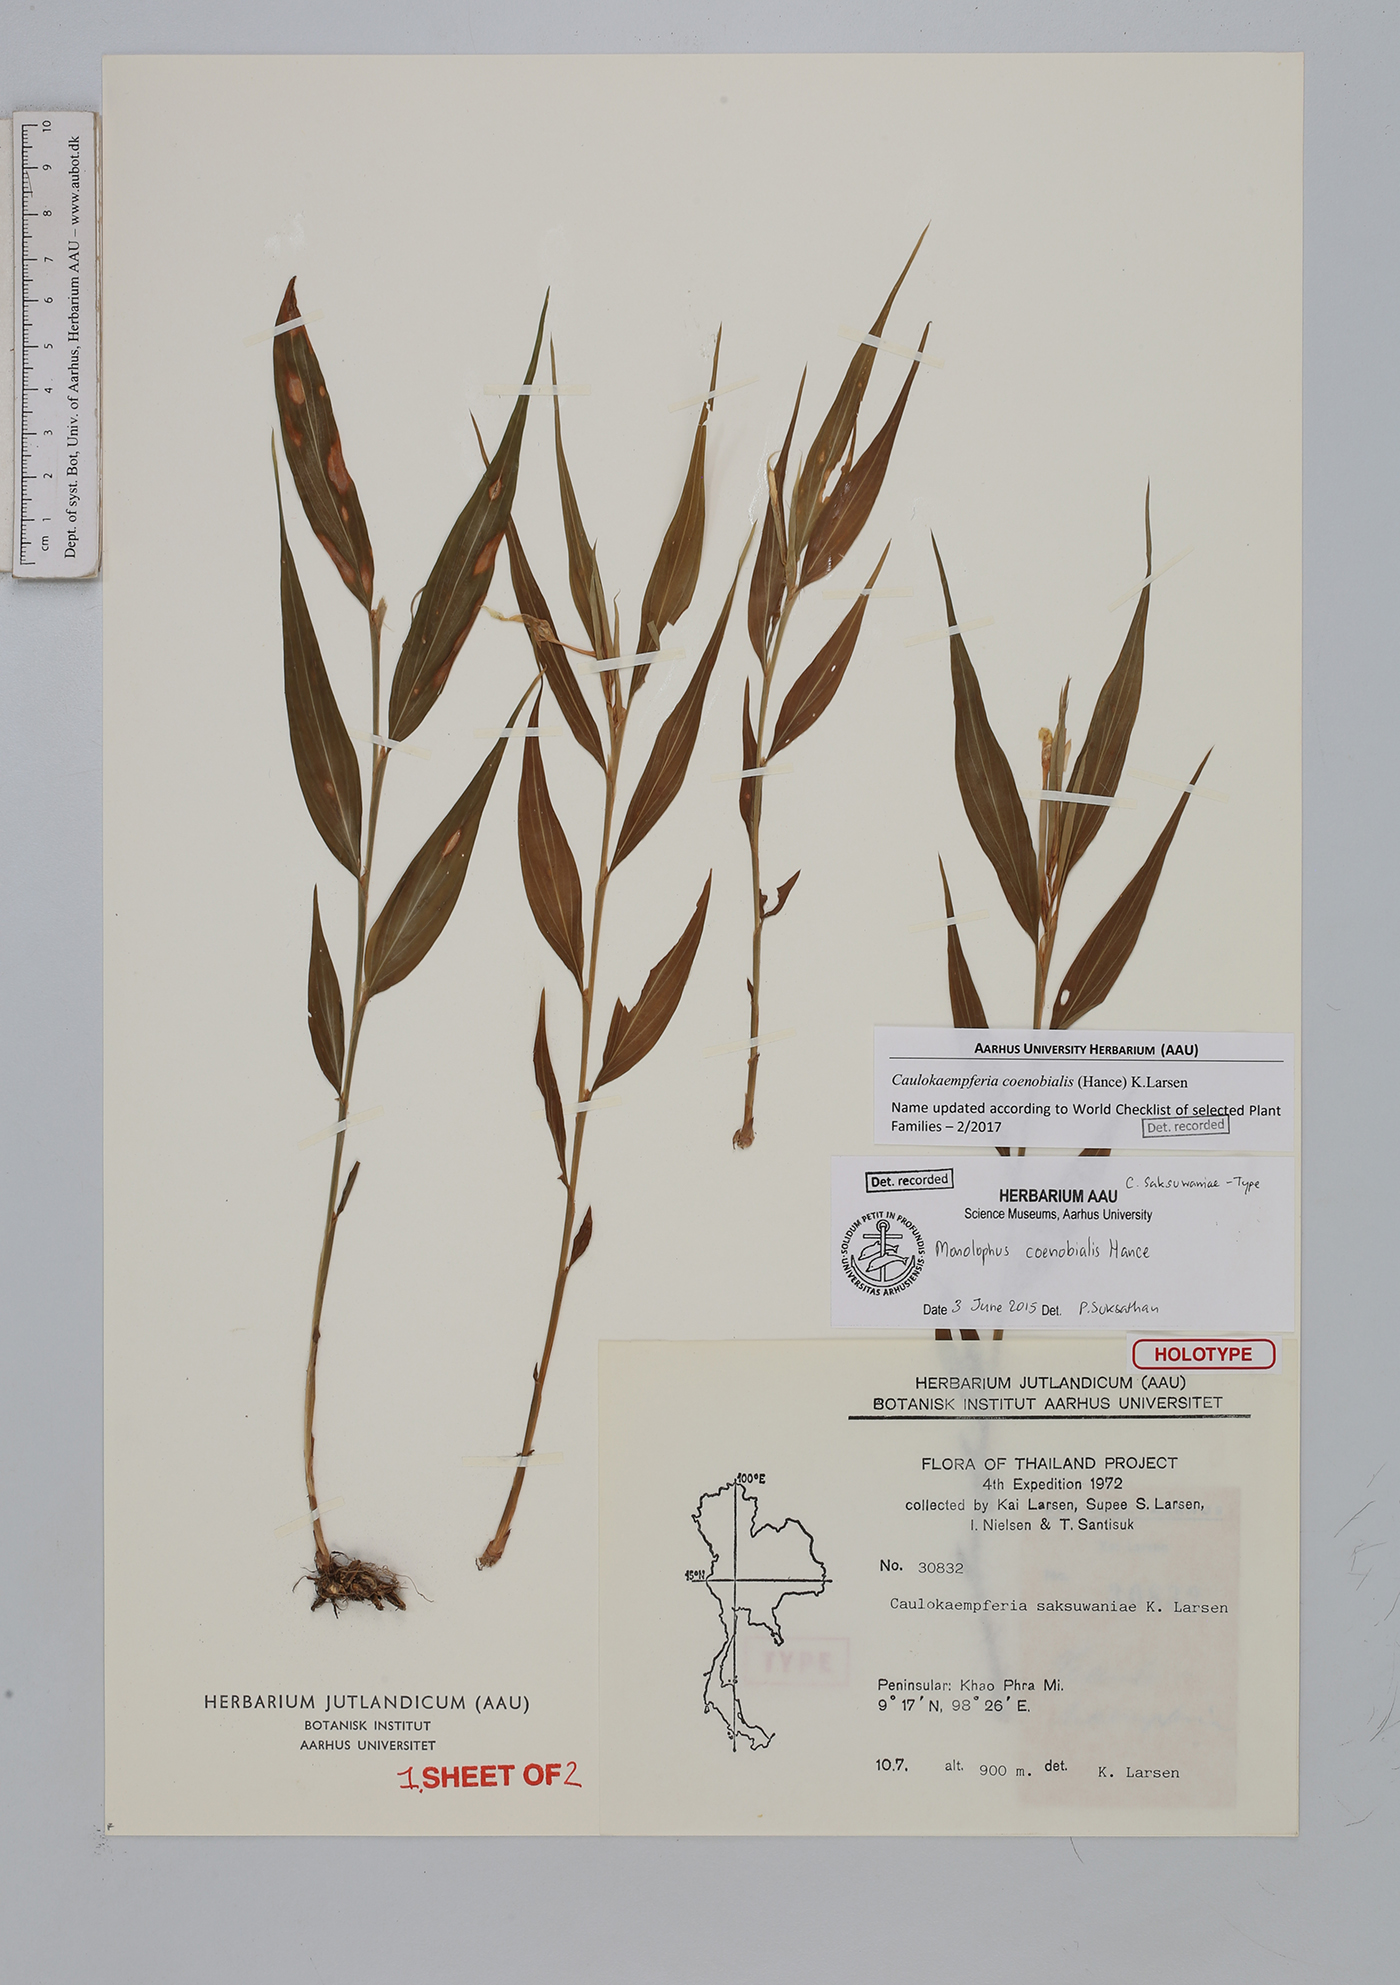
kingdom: Plantae
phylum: Tracheophyta
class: Liliopsida
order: Zingiberales
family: Zingiberaceae
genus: Caulokaempferia
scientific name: Caulokaempferia coenobialis
